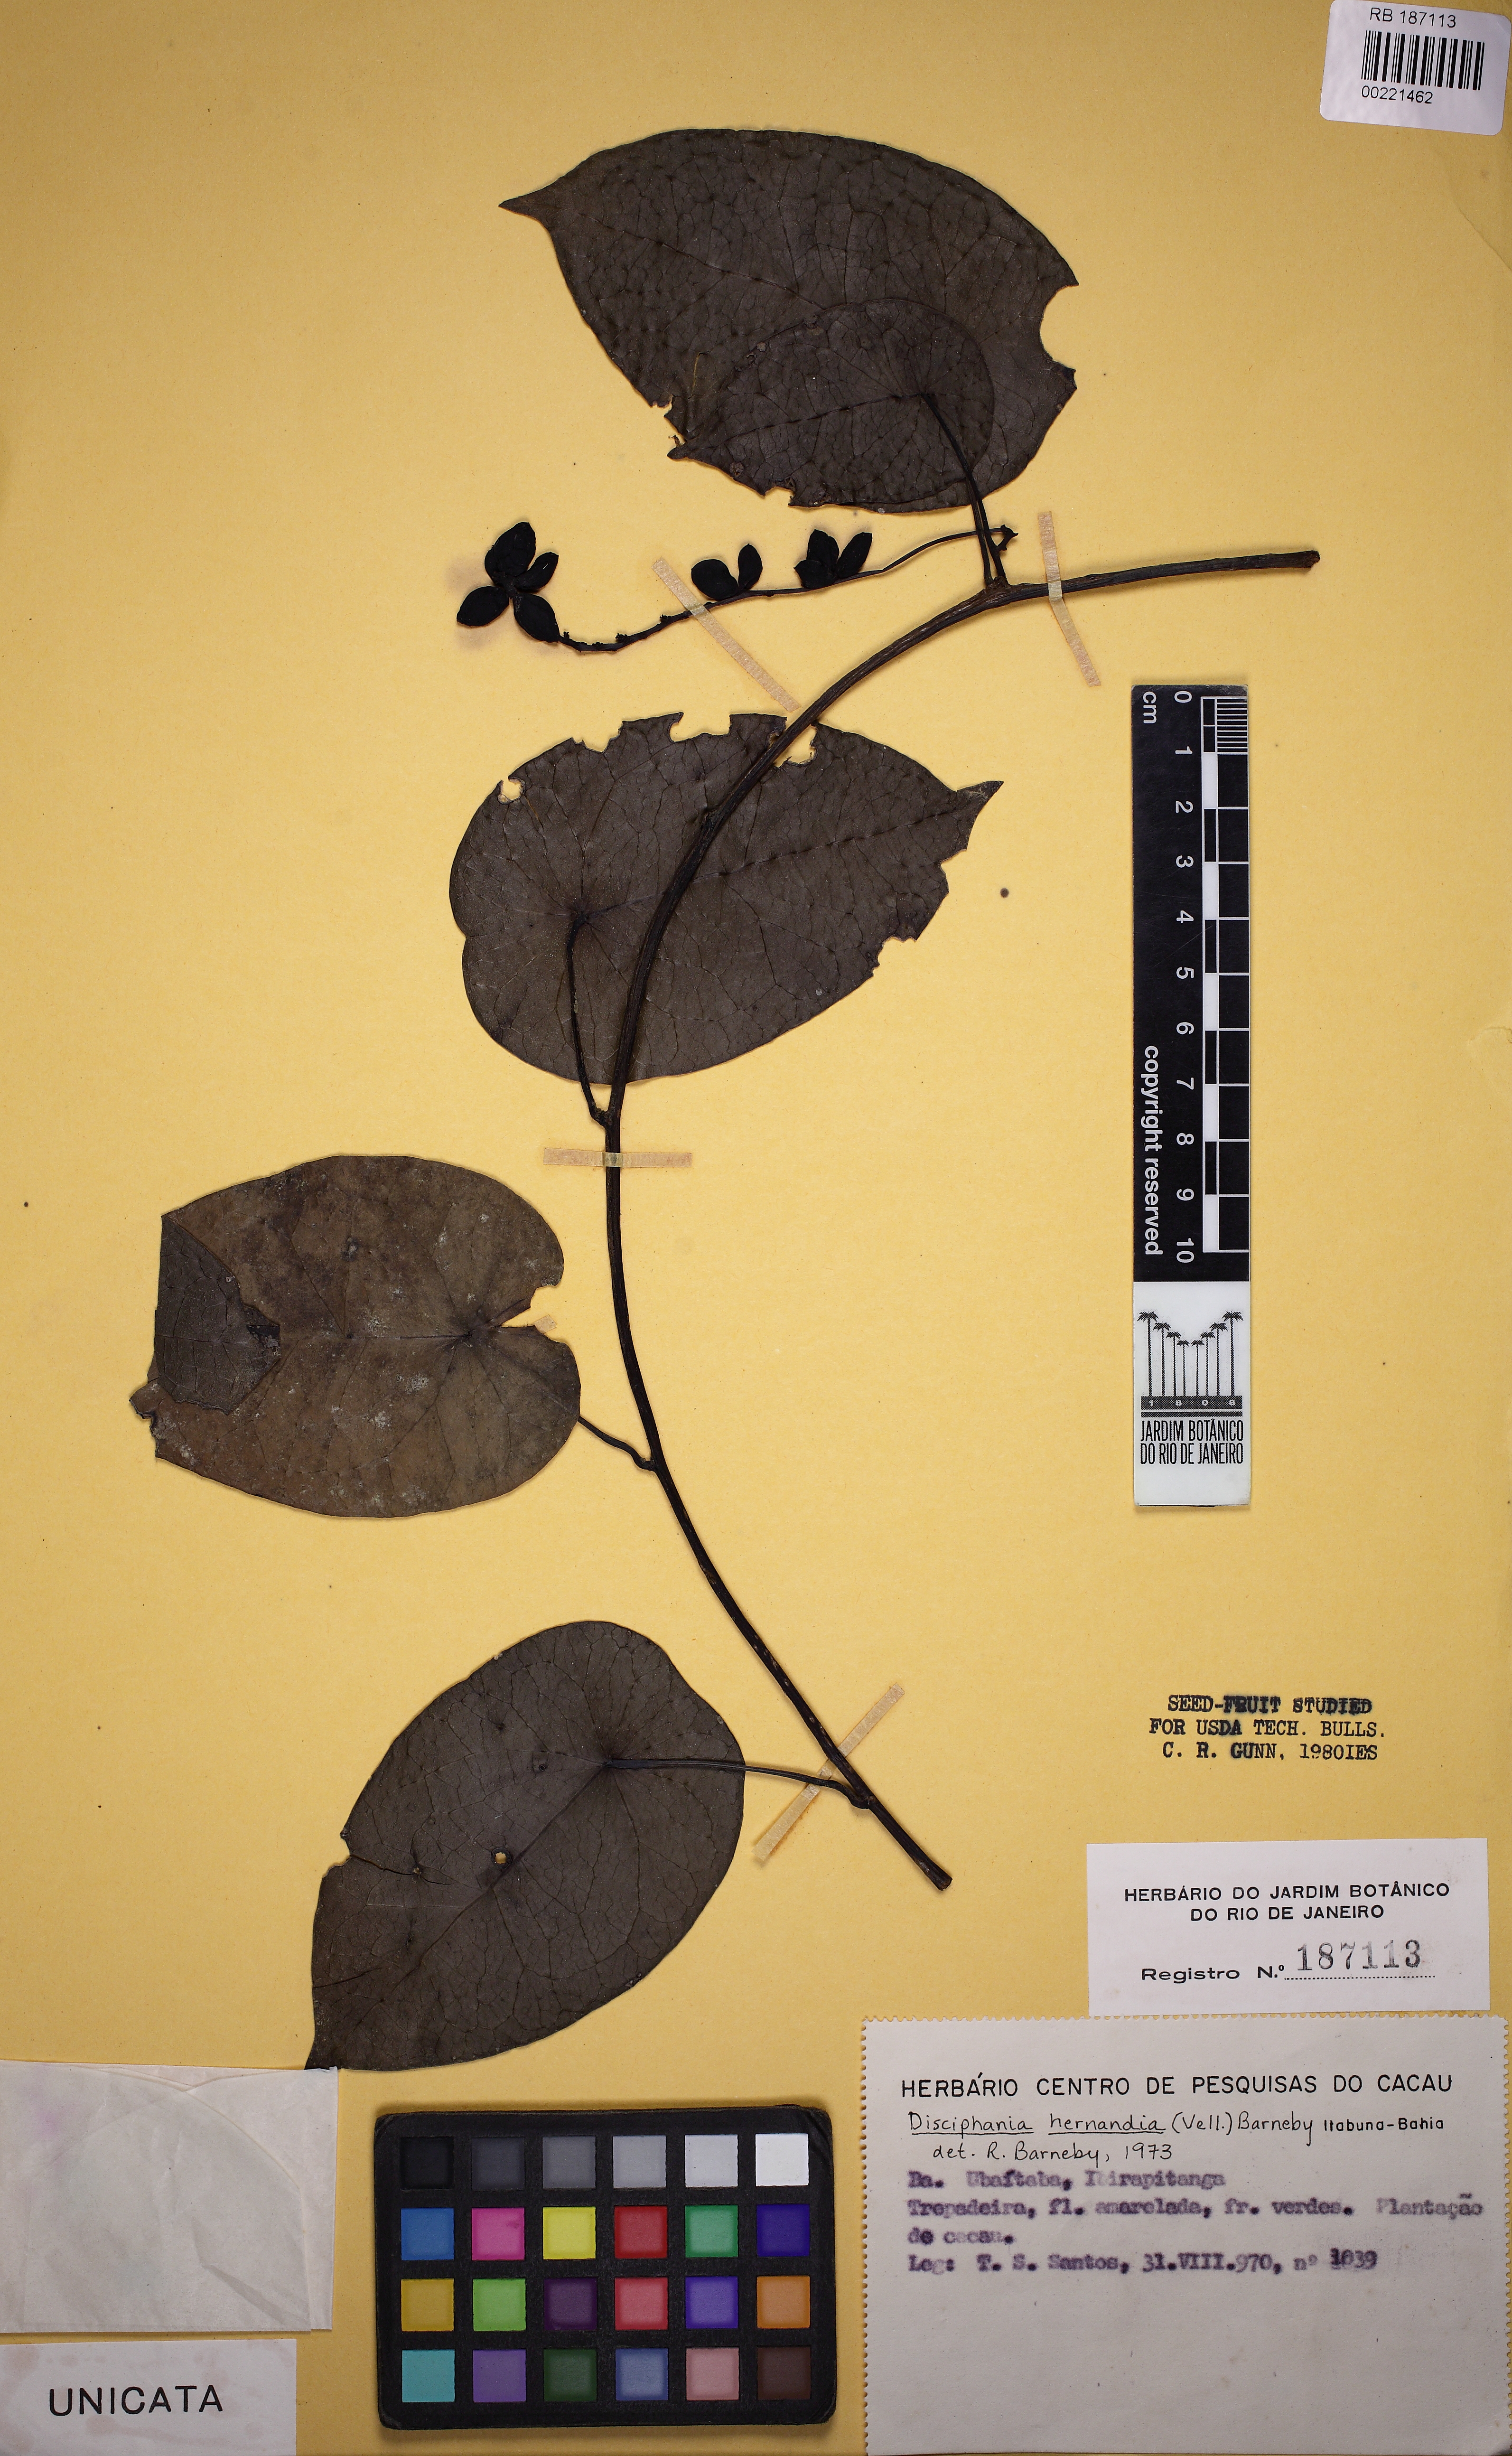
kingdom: Plantae
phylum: Tracheophyta
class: Magnoliopsida
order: Ranunculales
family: Menispermaceae
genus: Disciphania
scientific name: Disciphania hernandia
